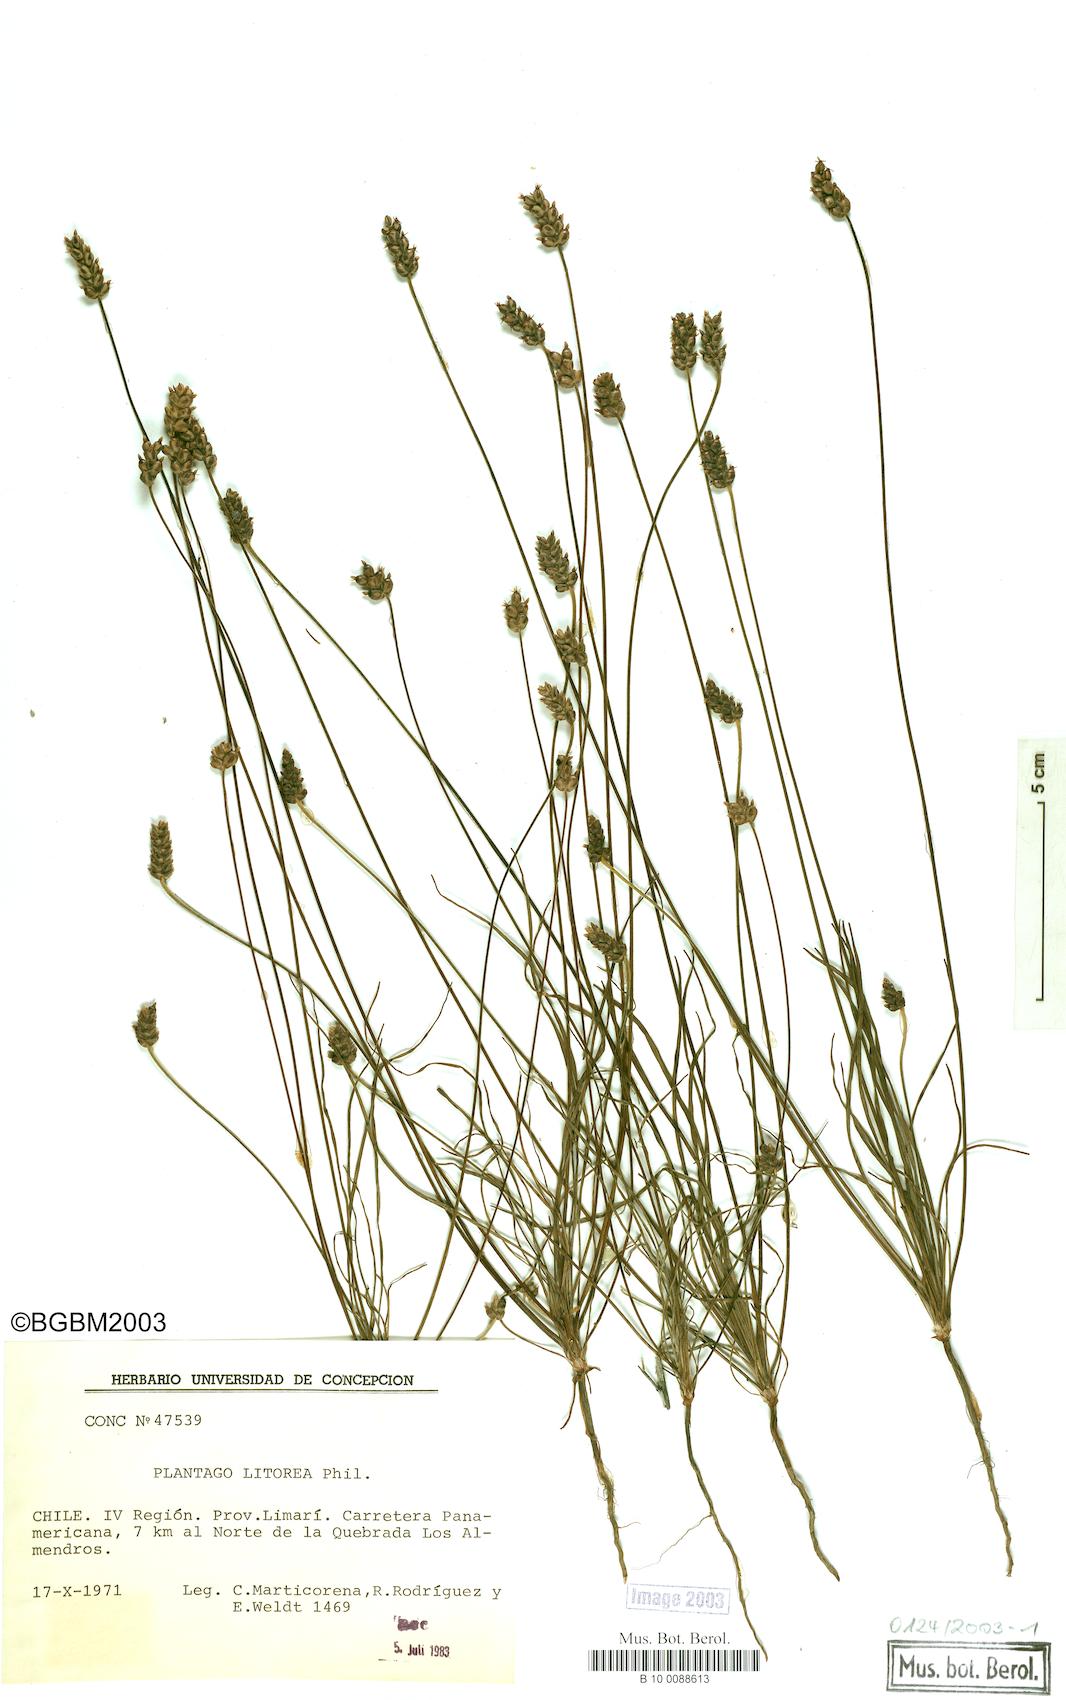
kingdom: Plantae
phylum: Tracheophyta
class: Magnoliopsida
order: Lamiales
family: Plantaginaceae
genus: Plantago
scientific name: Plantago litorea
